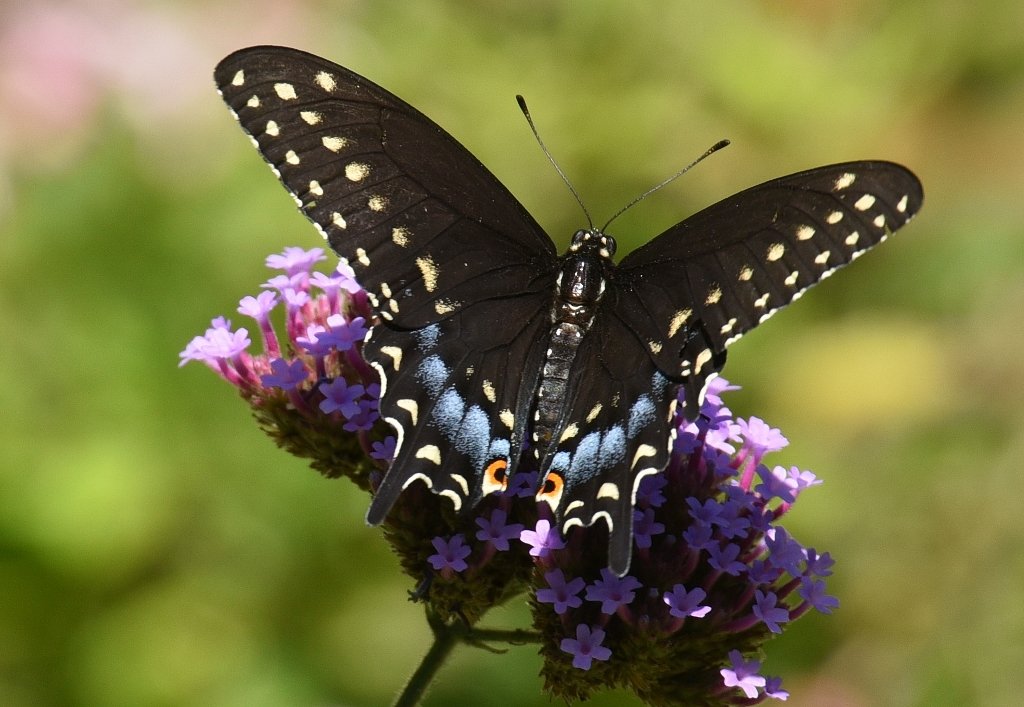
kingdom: Animalia
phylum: Arthropoda
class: Insecta
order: Lepidoptera
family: Papilionidae
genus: Papilio
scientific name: Papilio polyxenes
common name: Black Swallowtail
